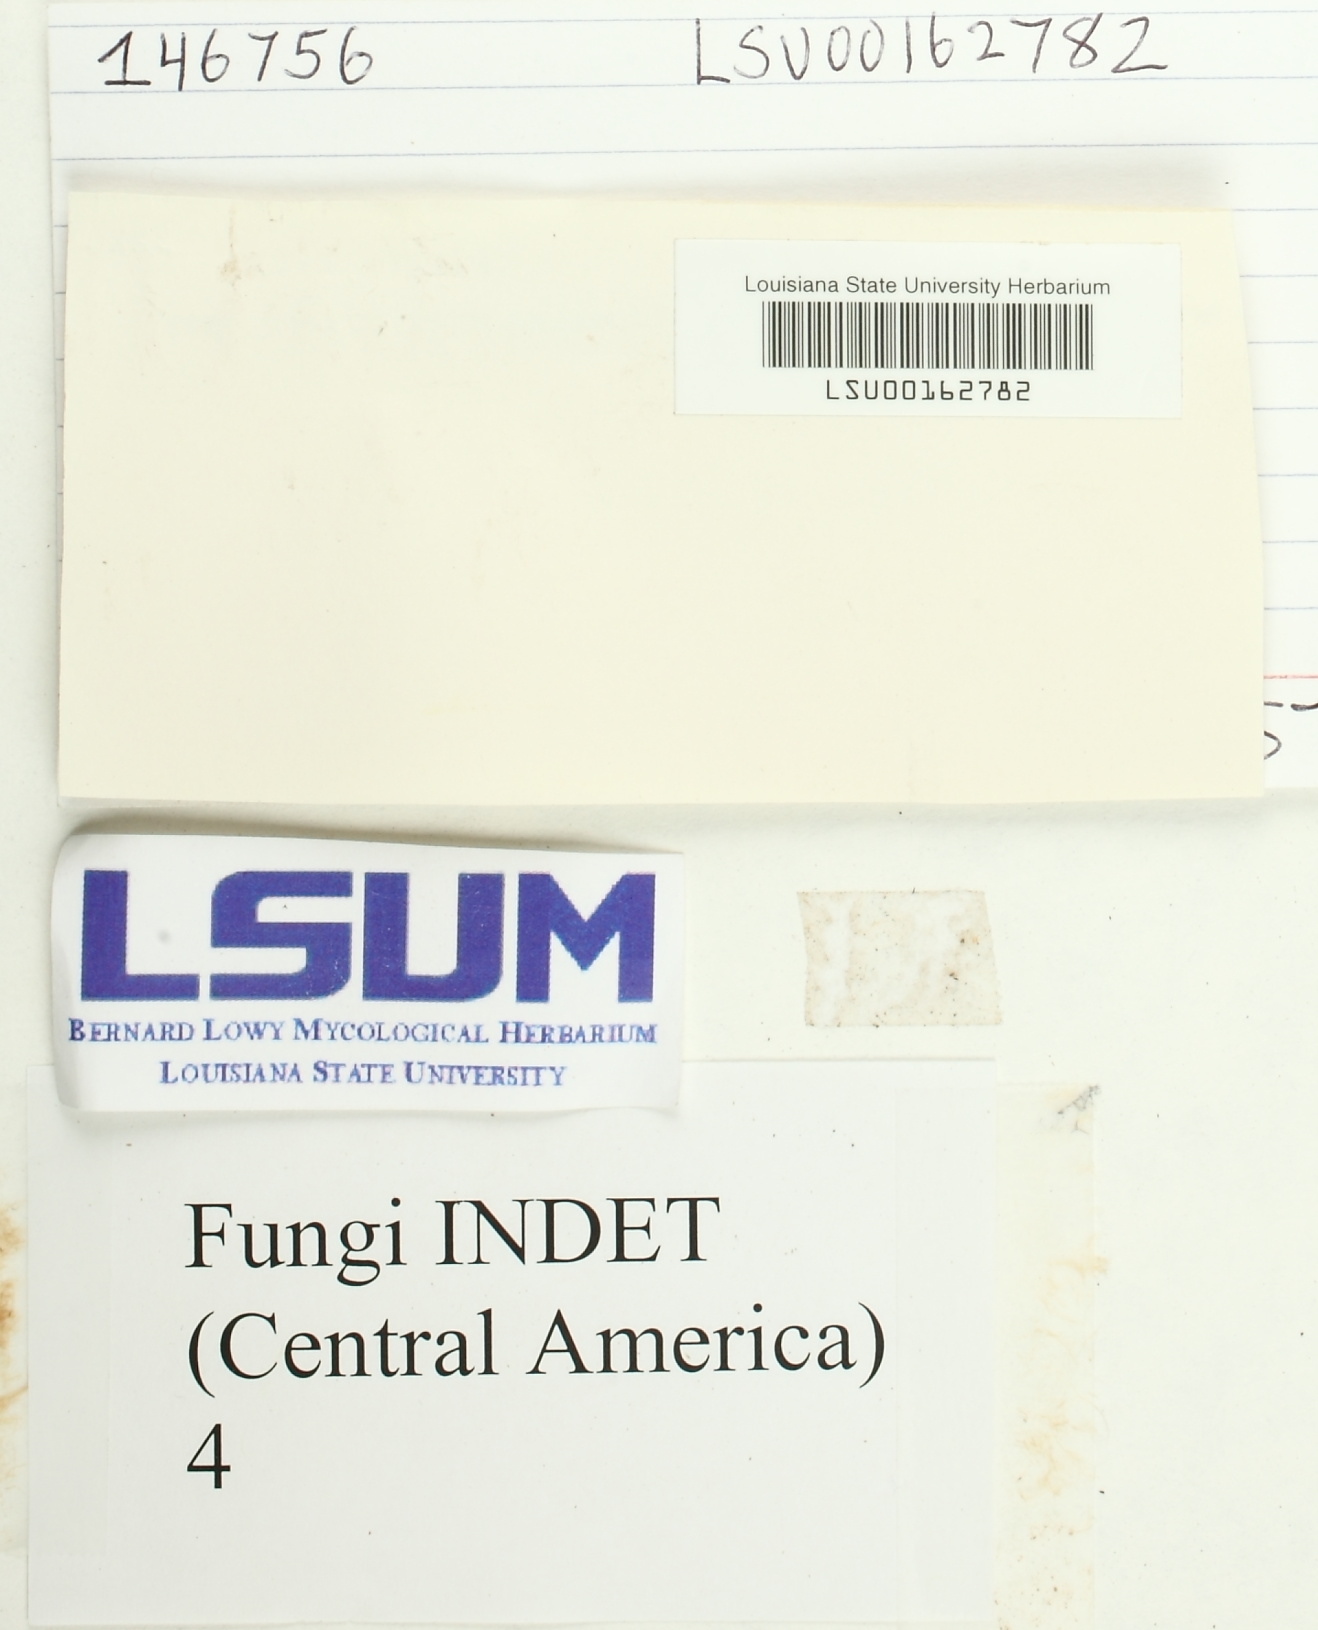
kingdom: Fungi
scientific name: Fungi
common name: Fungi
